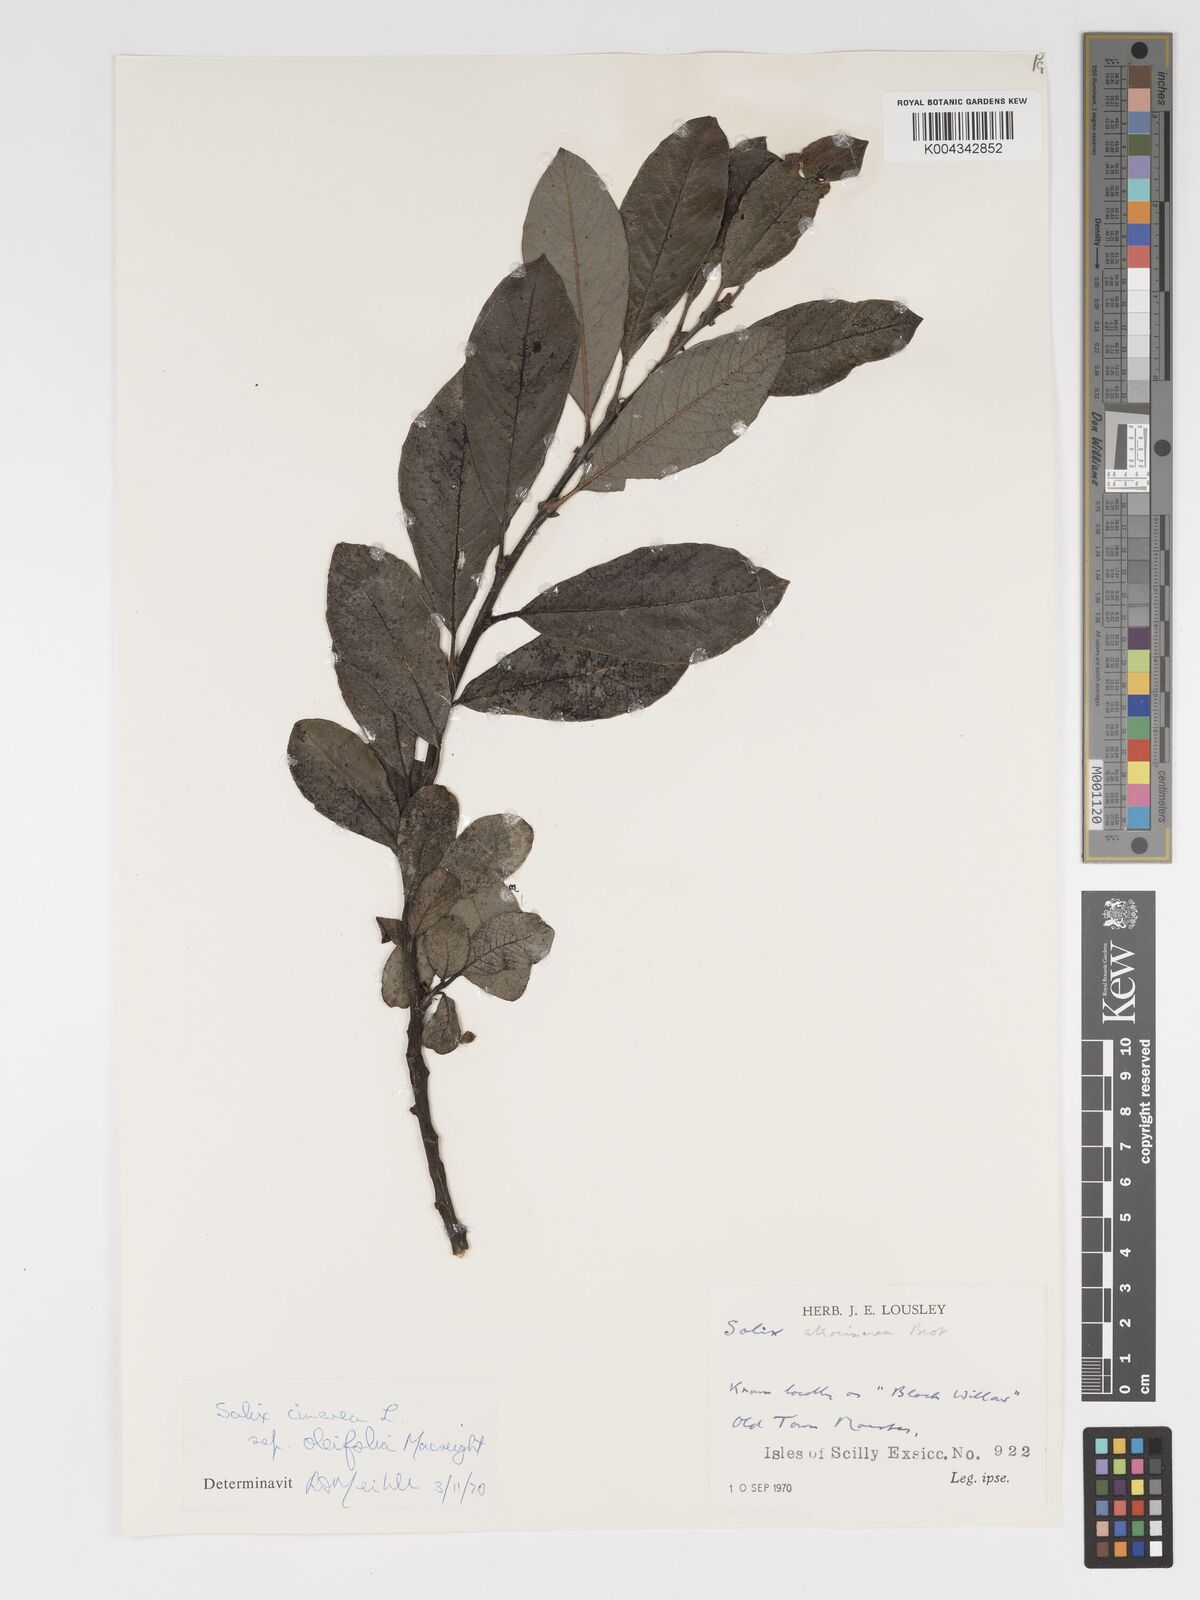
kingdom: Plantae
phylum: Tracheophyta
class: Magnoliopsida
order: Malpighiales
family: Salicaceae
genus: Salix
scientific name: Salix atrocinerea
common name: Rusty willow
